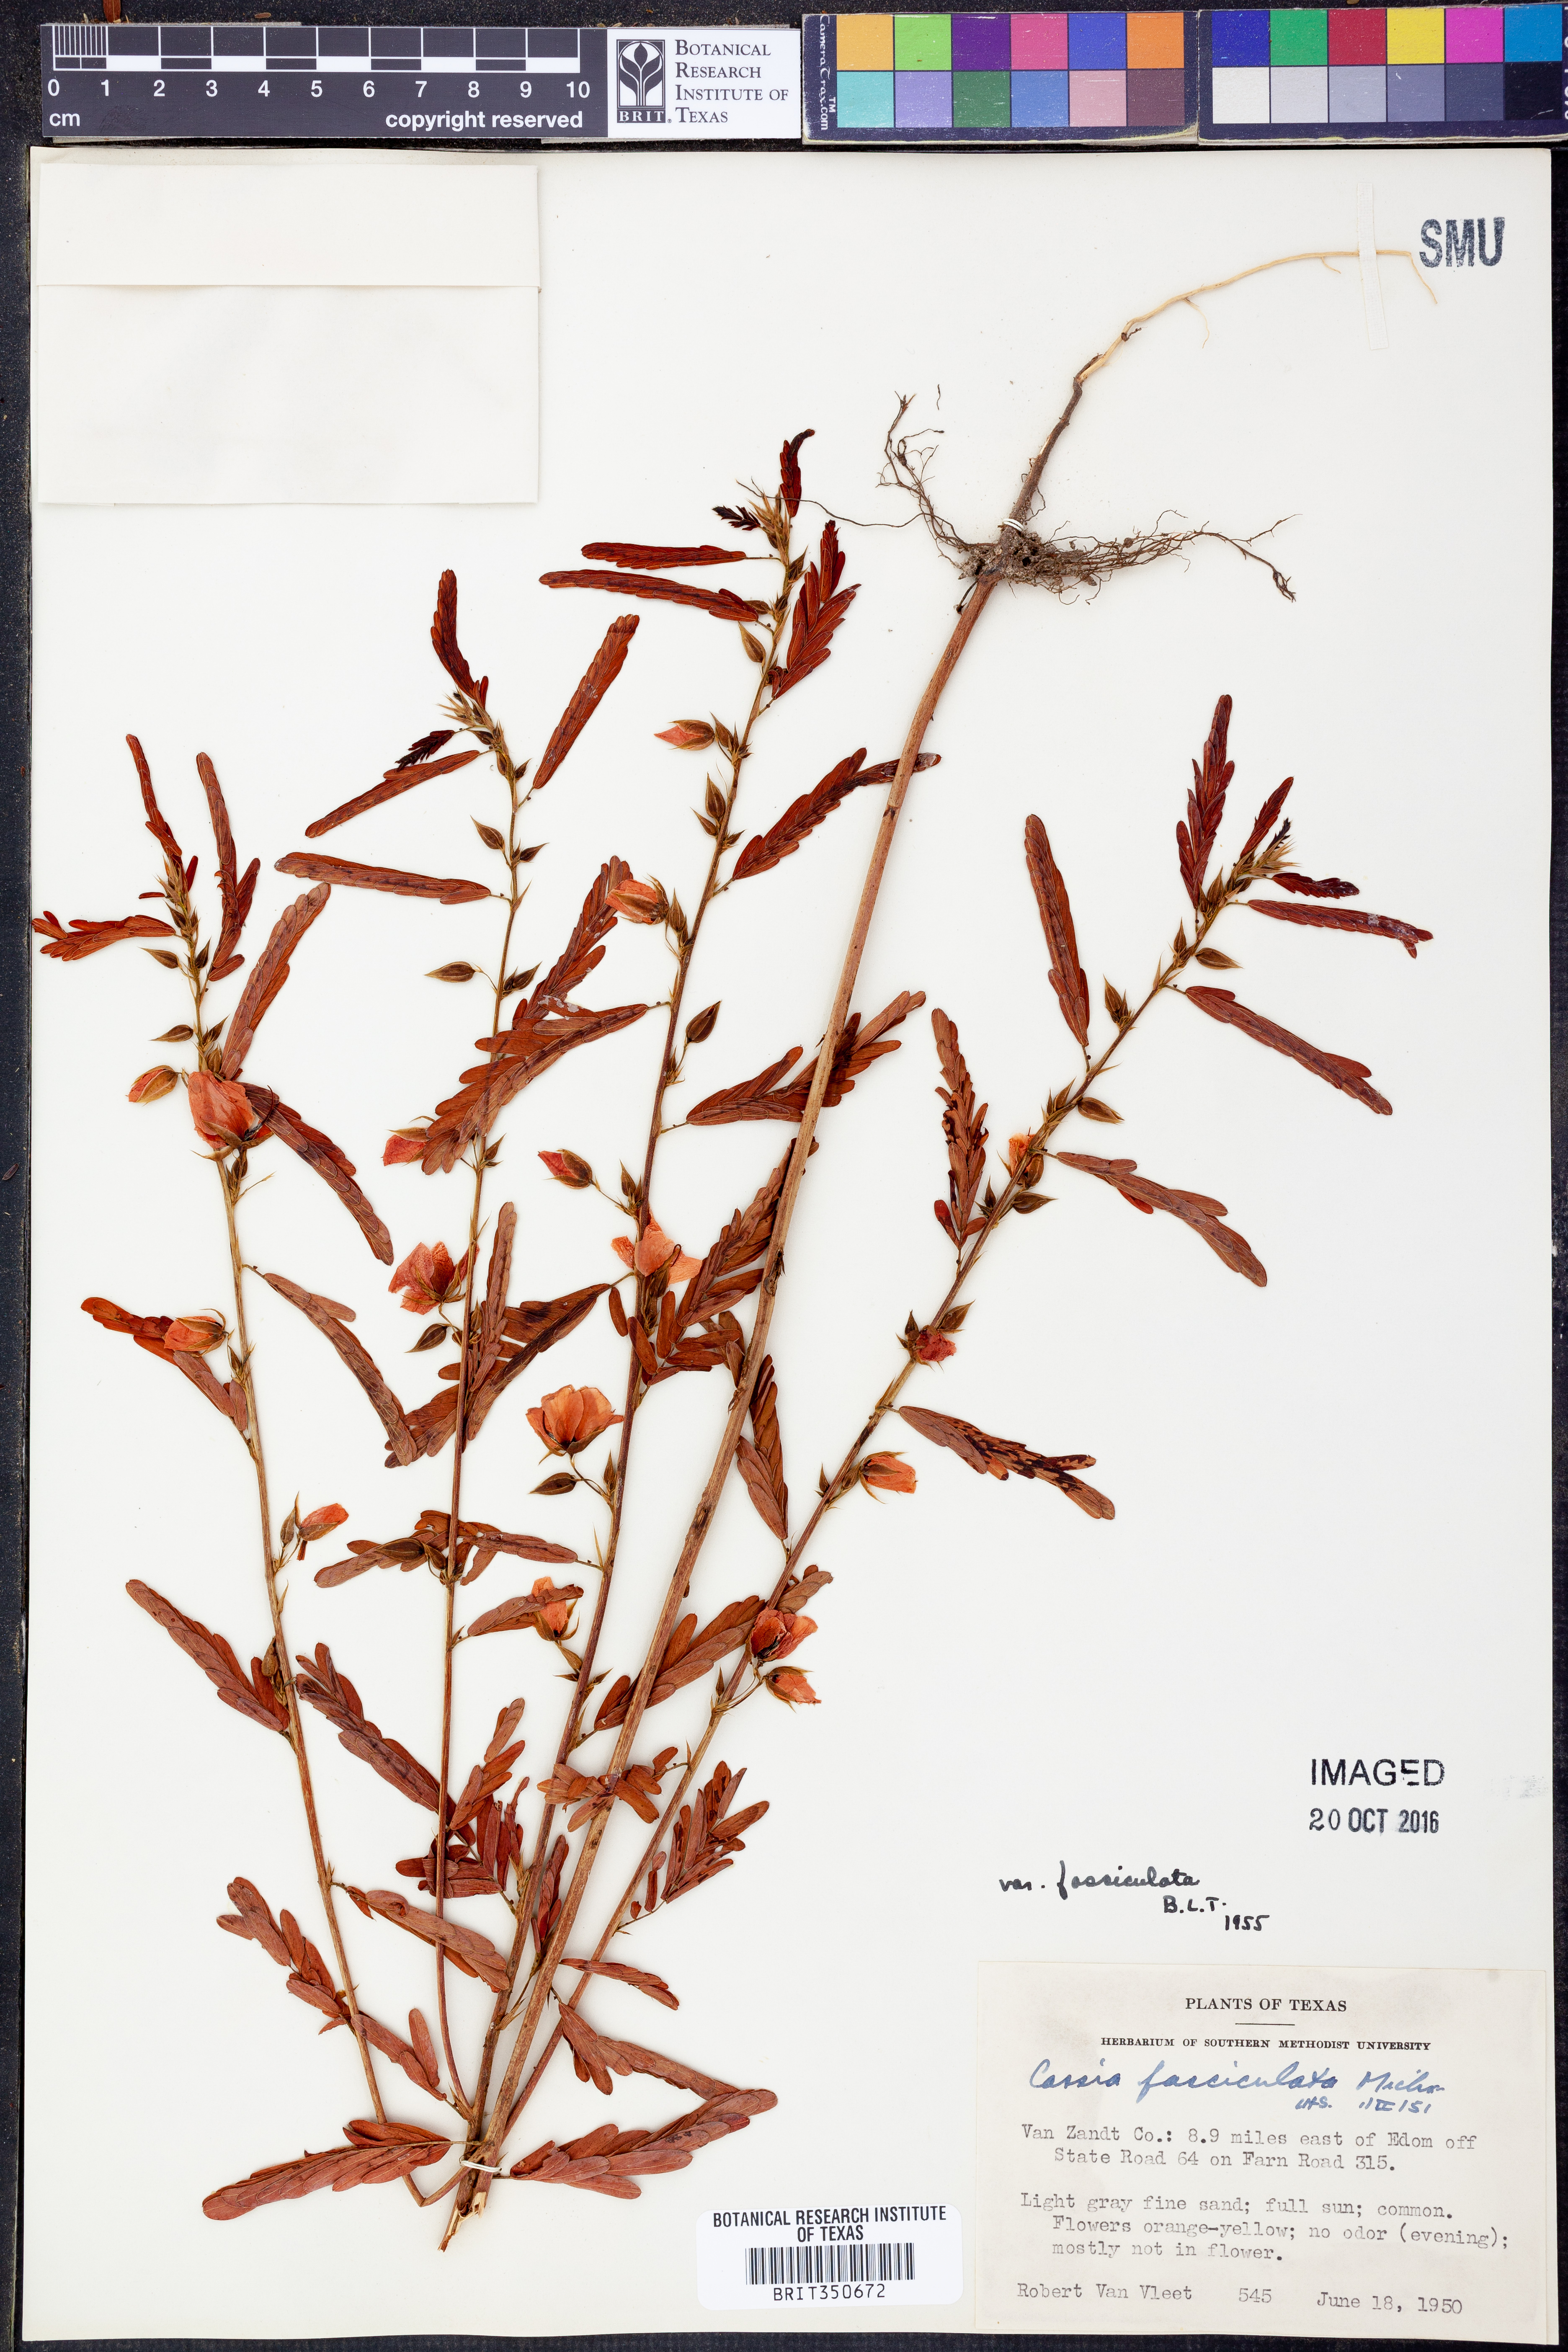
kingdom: Plantae
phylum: Tracheophyta
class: Magnoliopsida
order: Fabales
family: Fabaceae
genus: Chamaecrista
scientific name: Chamaecrista fasciculata
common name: Golden cassia
